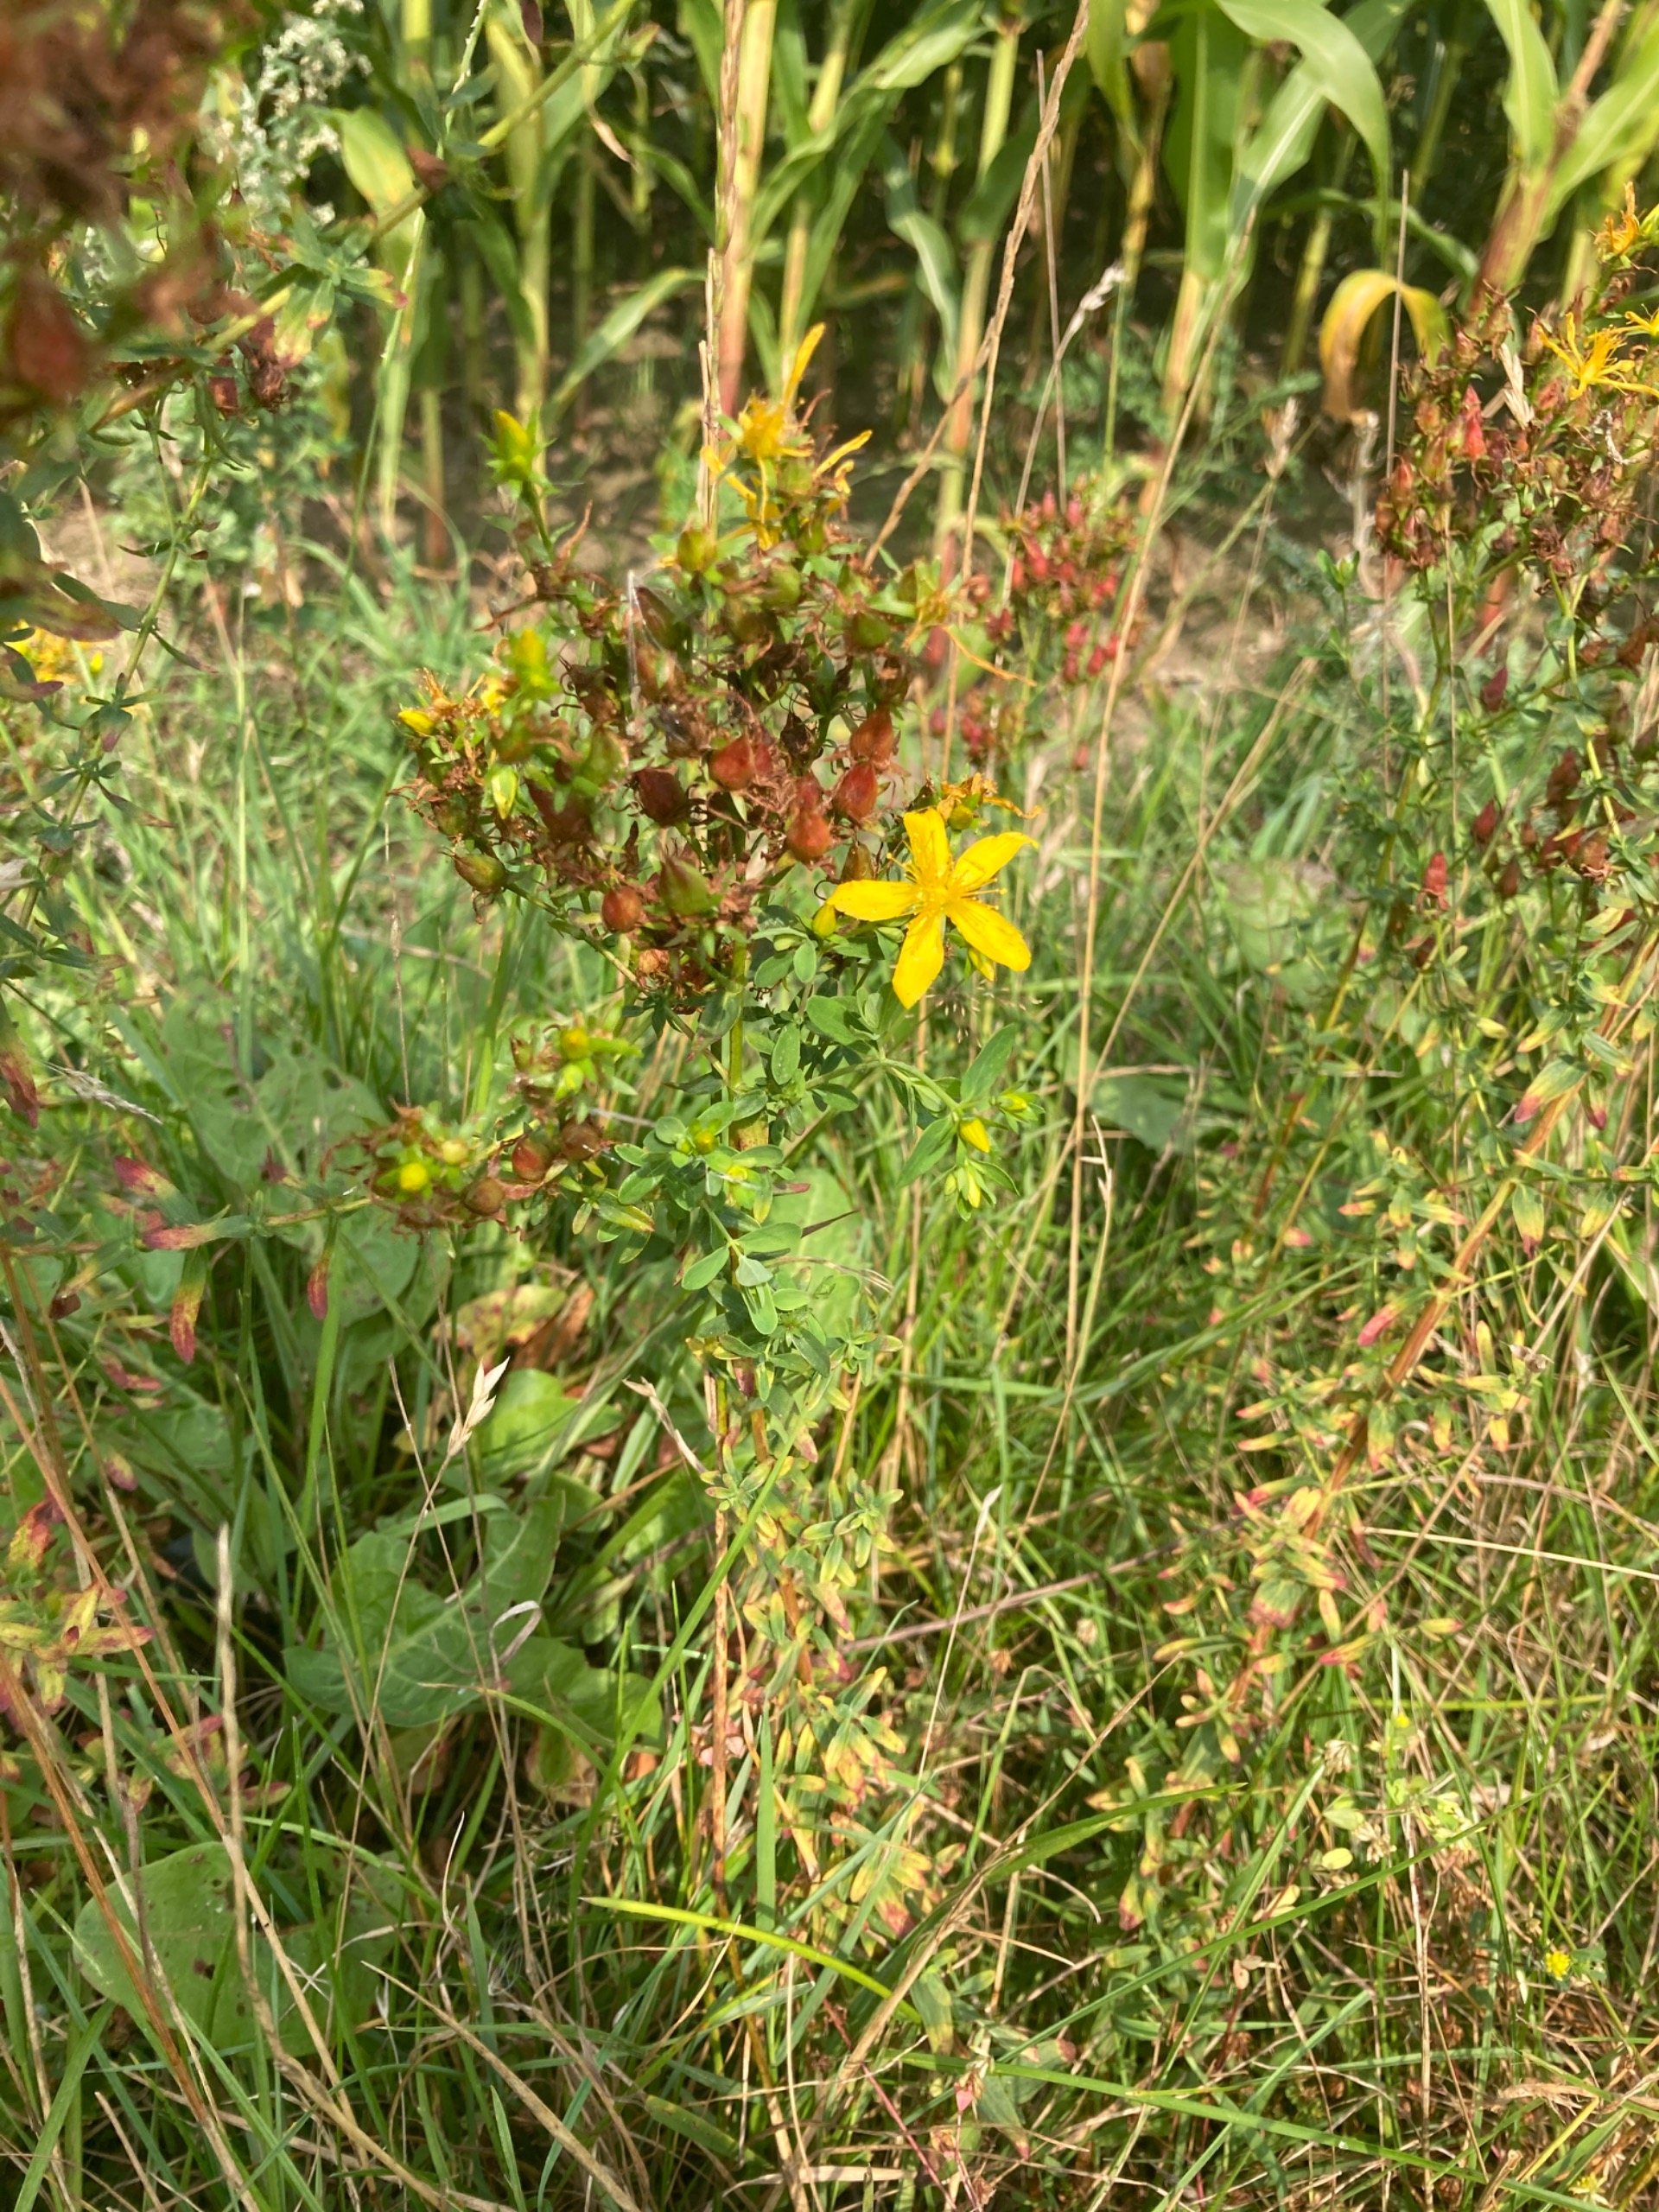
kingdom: Plantae
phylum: Tracheophyta
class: Magnoliopsida
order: Malpighiales
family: Hypericaceae
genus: Hypericum
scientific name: Hypericum perforatum
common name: Prikbladet perikon
